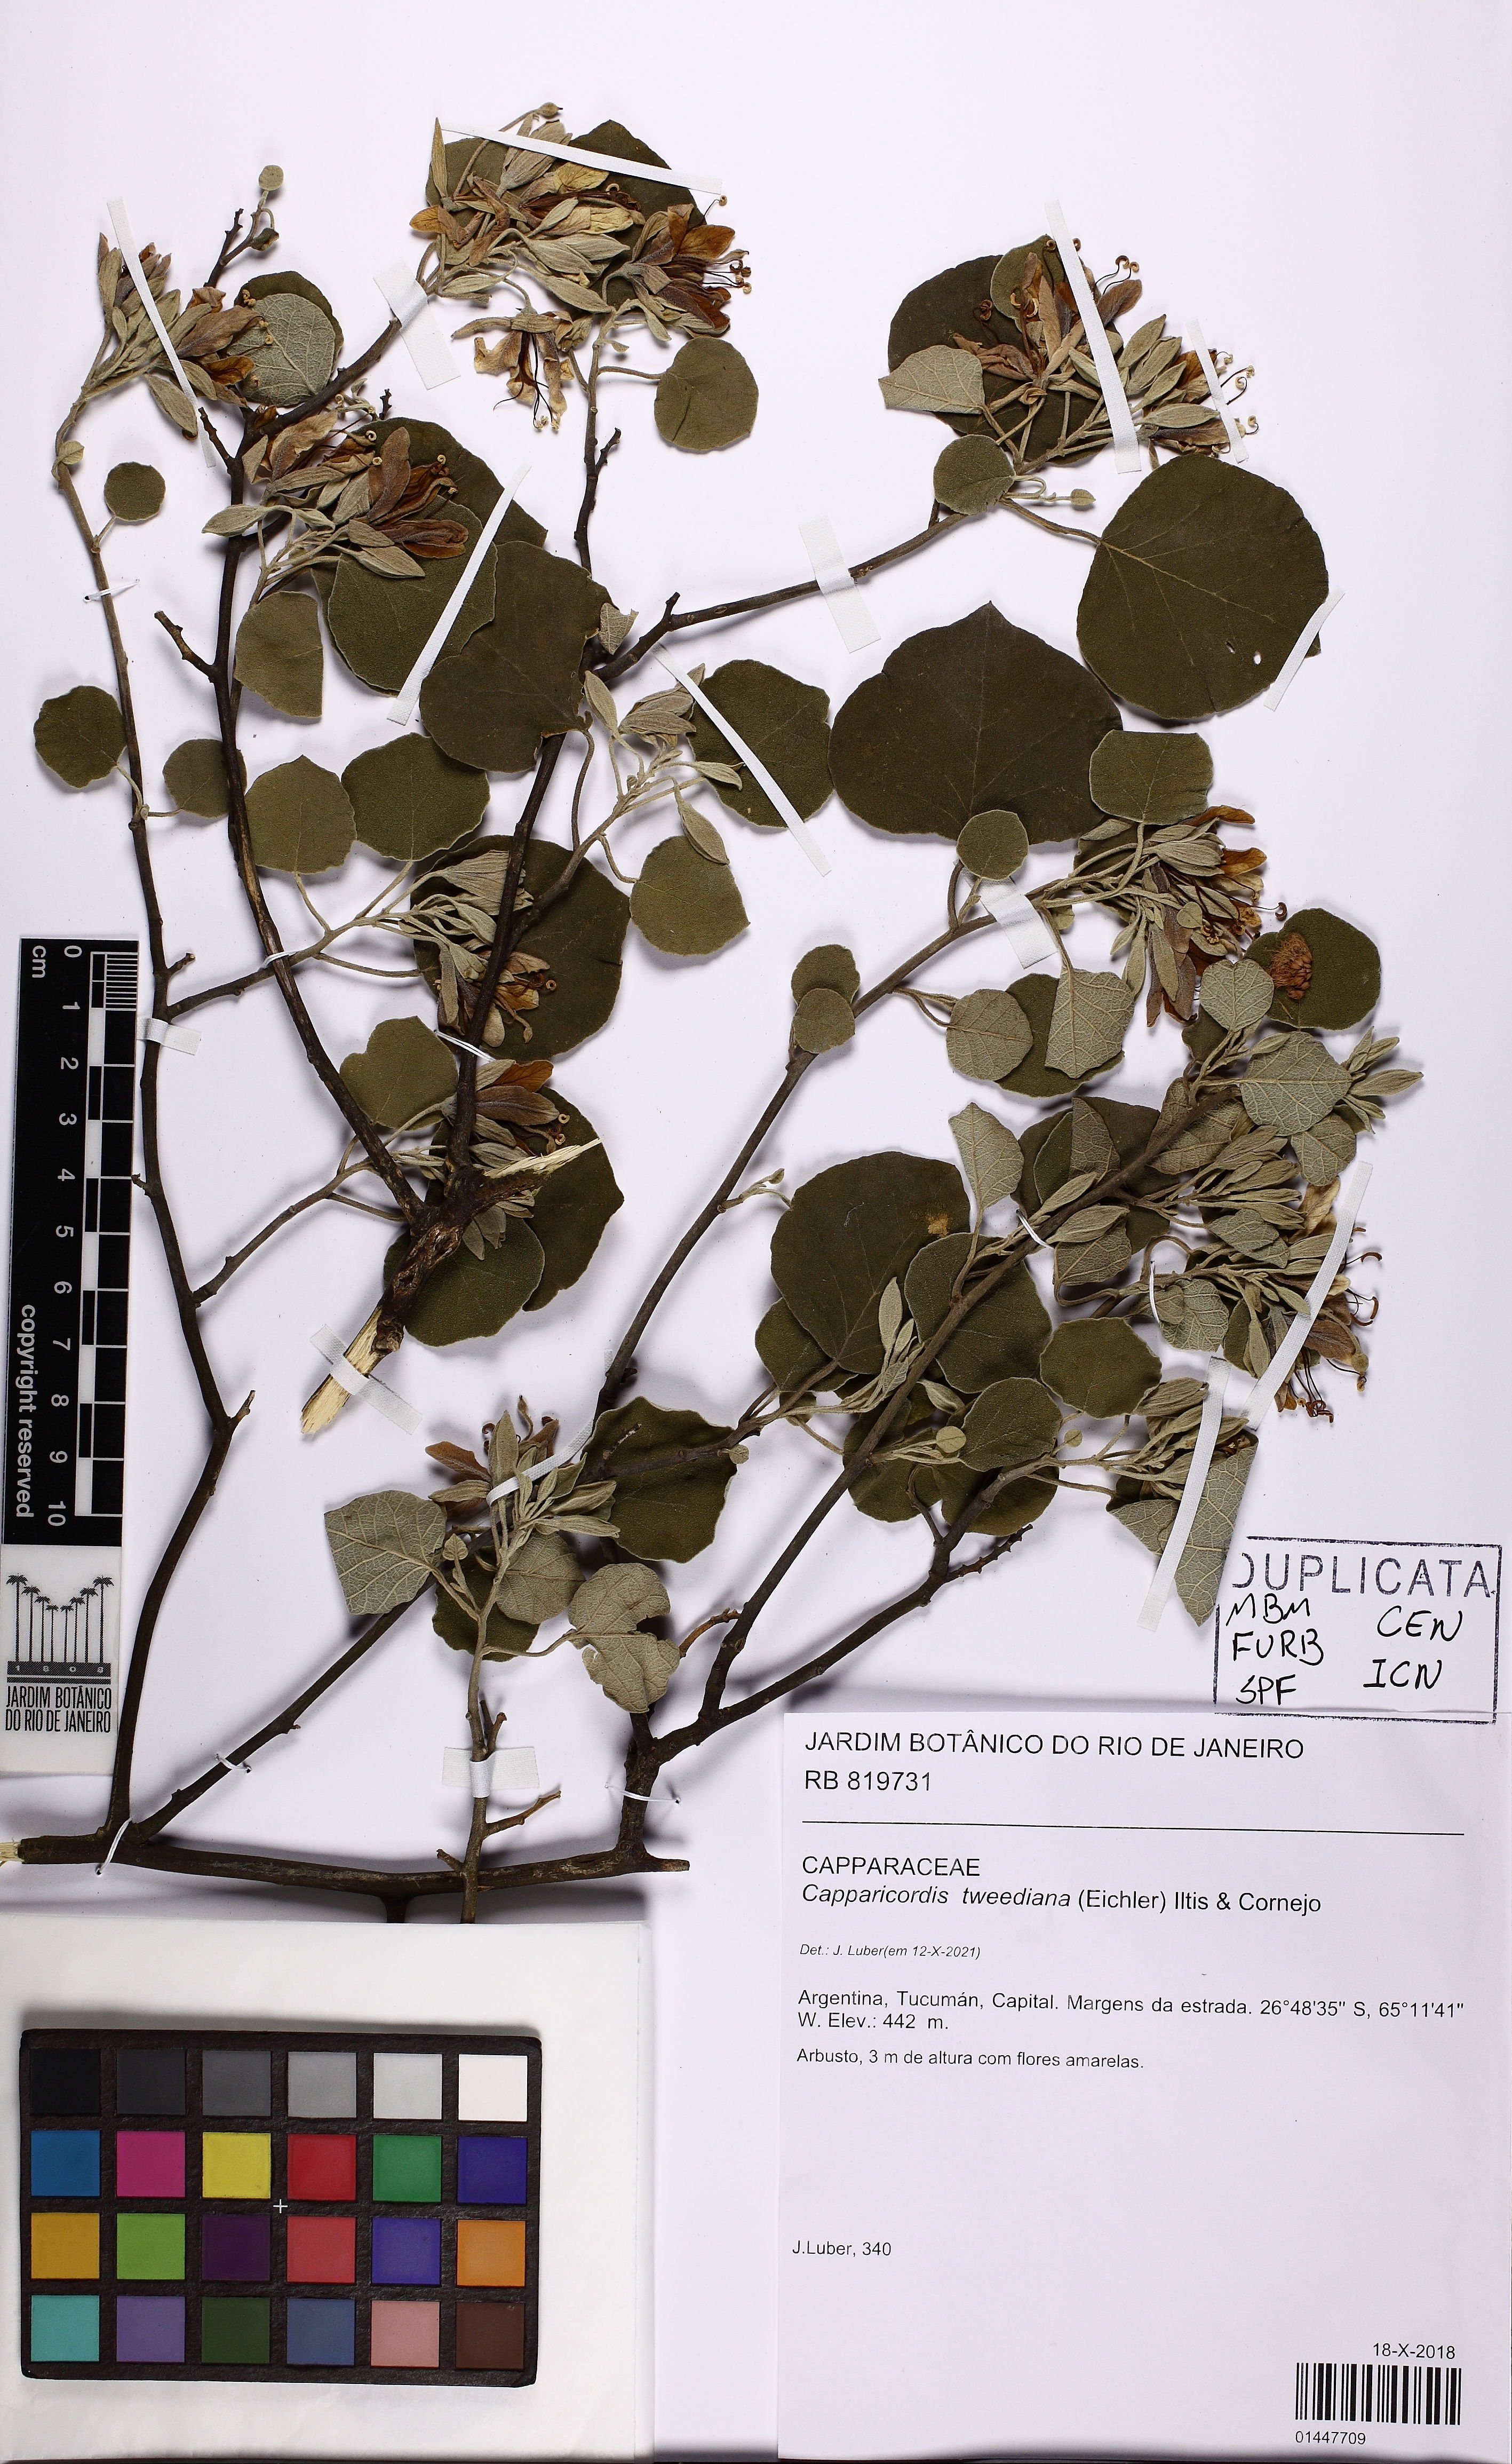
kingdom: Plantae
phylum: Tracheophyta
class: Magnoliopsida
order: Brassicales
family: Capparaceae
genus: Capparicordis
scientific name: Capparicordis tweediana
